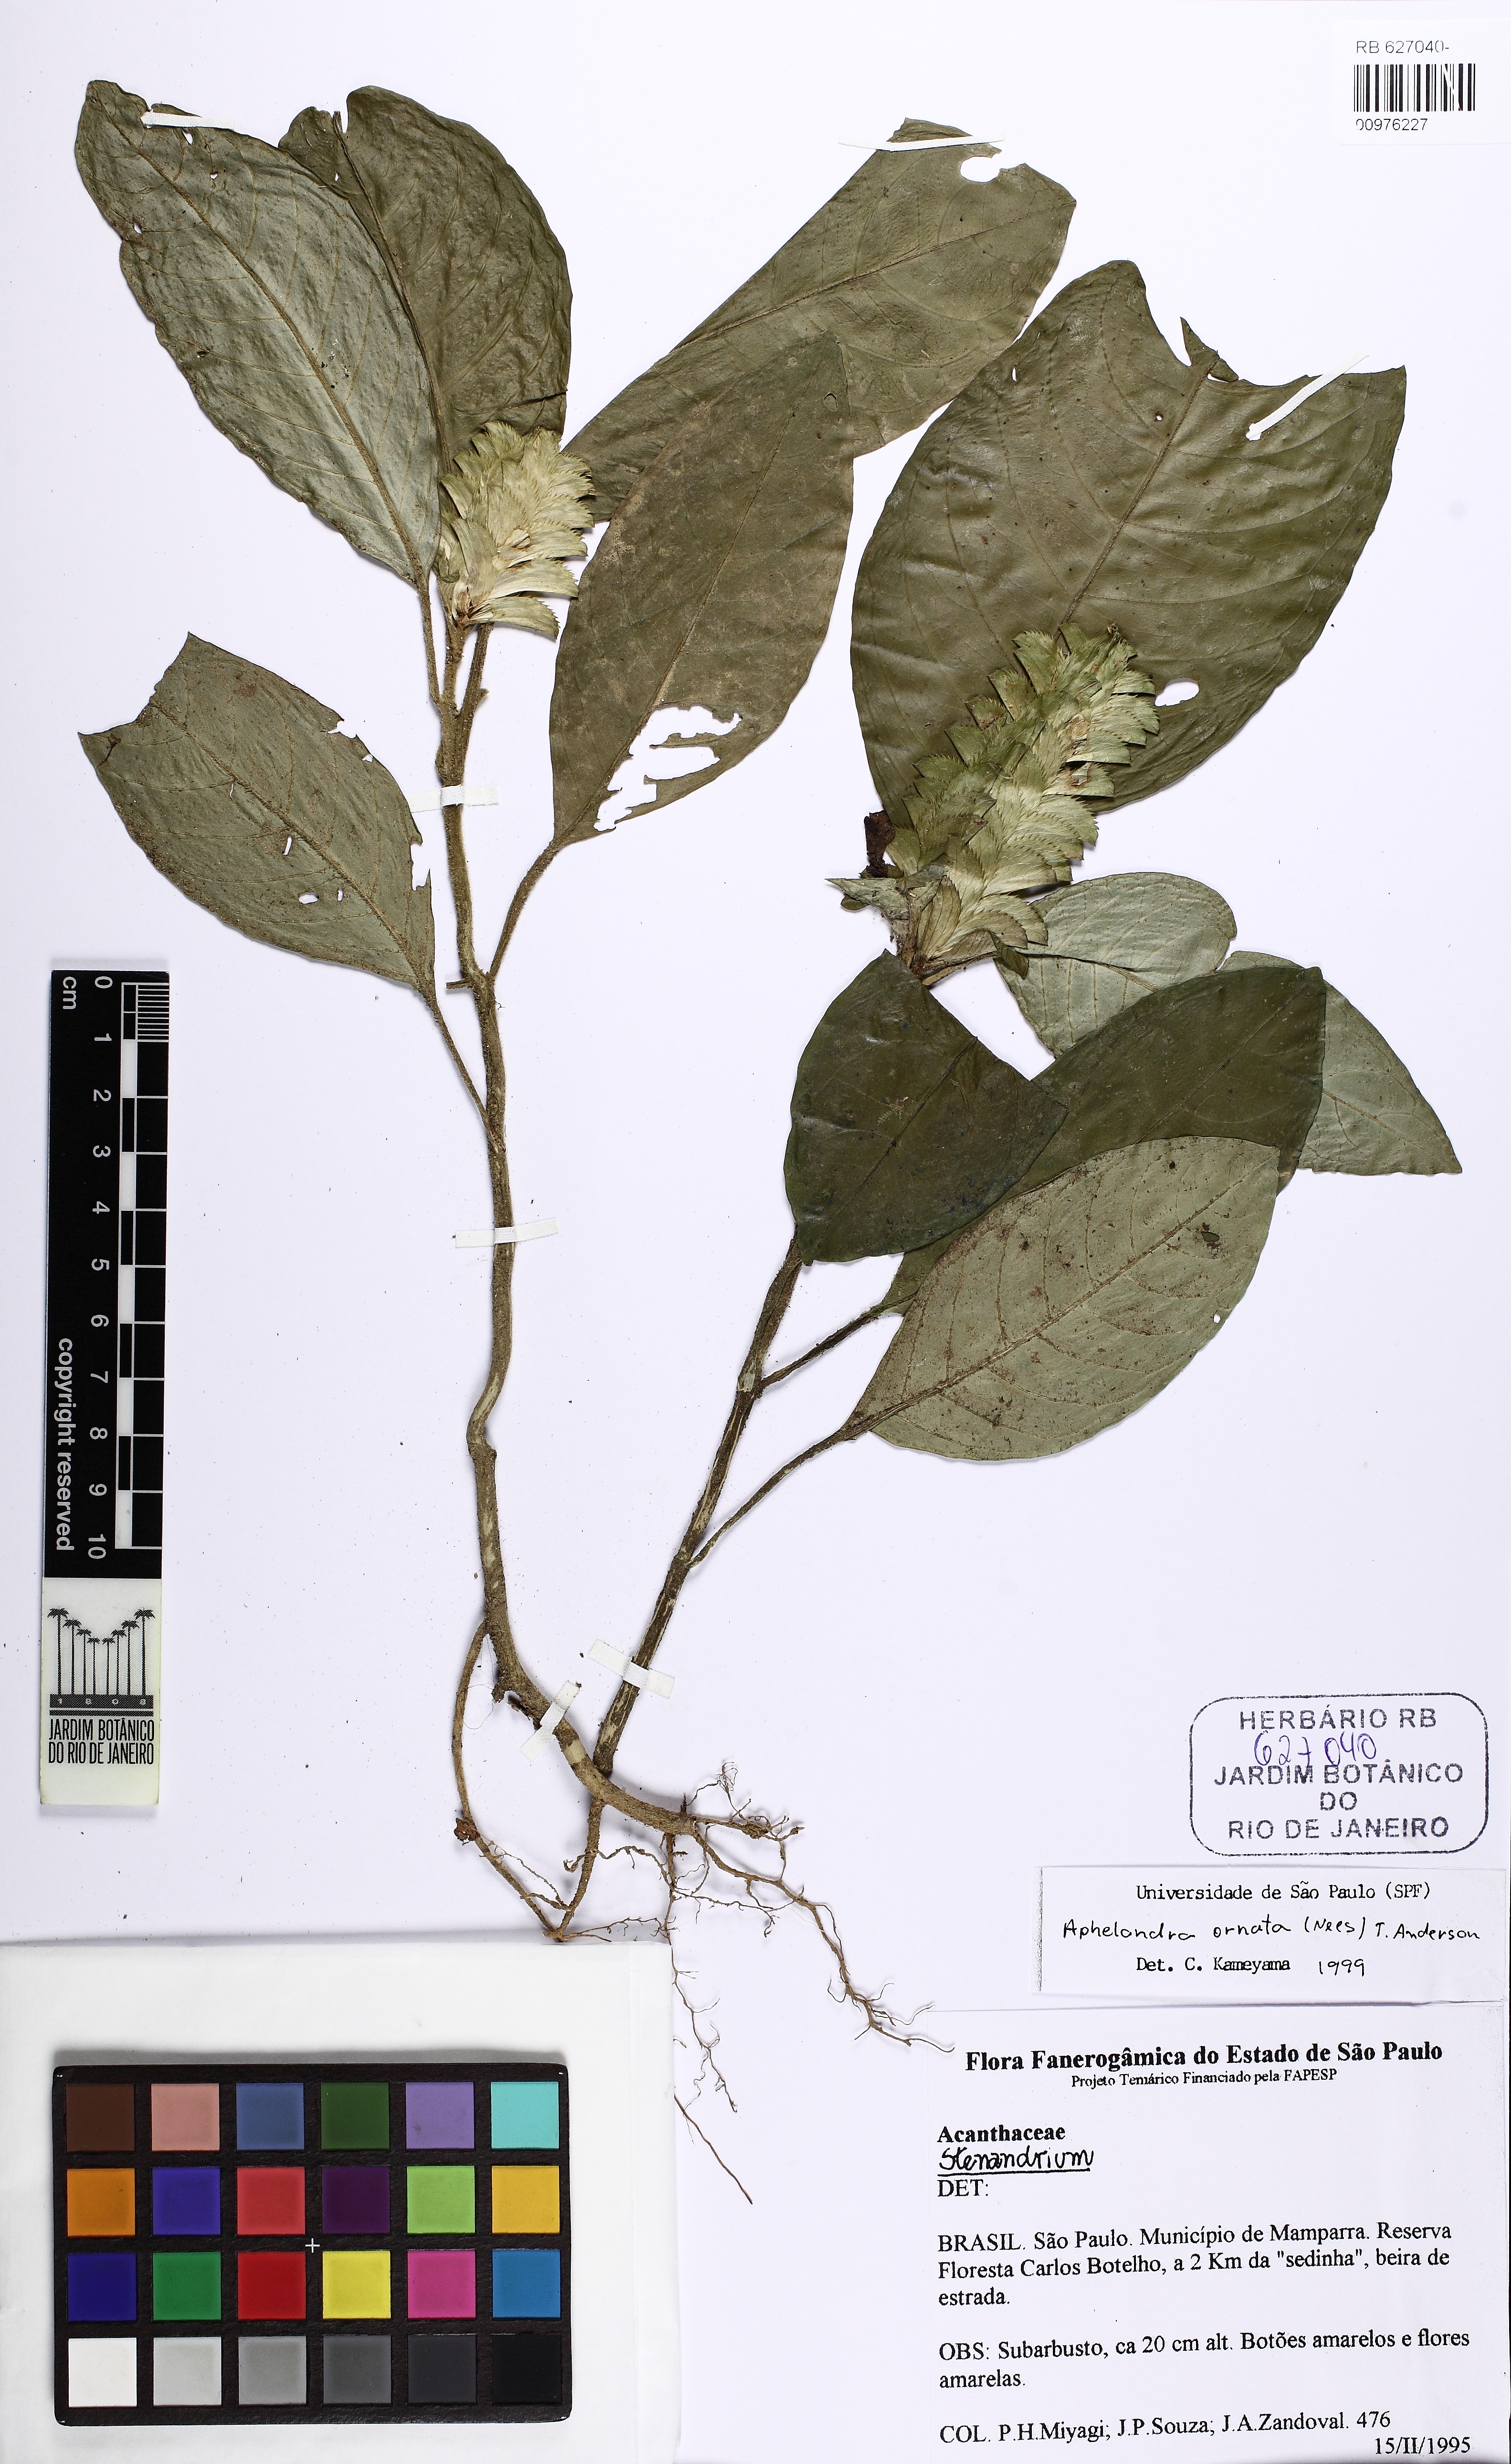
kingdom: Plantae
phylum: Tracheophyta
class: Magnoliopsida
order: Lamiales
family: Acanthaceae
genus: Aphelandra
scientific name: Aphelandra ornata
